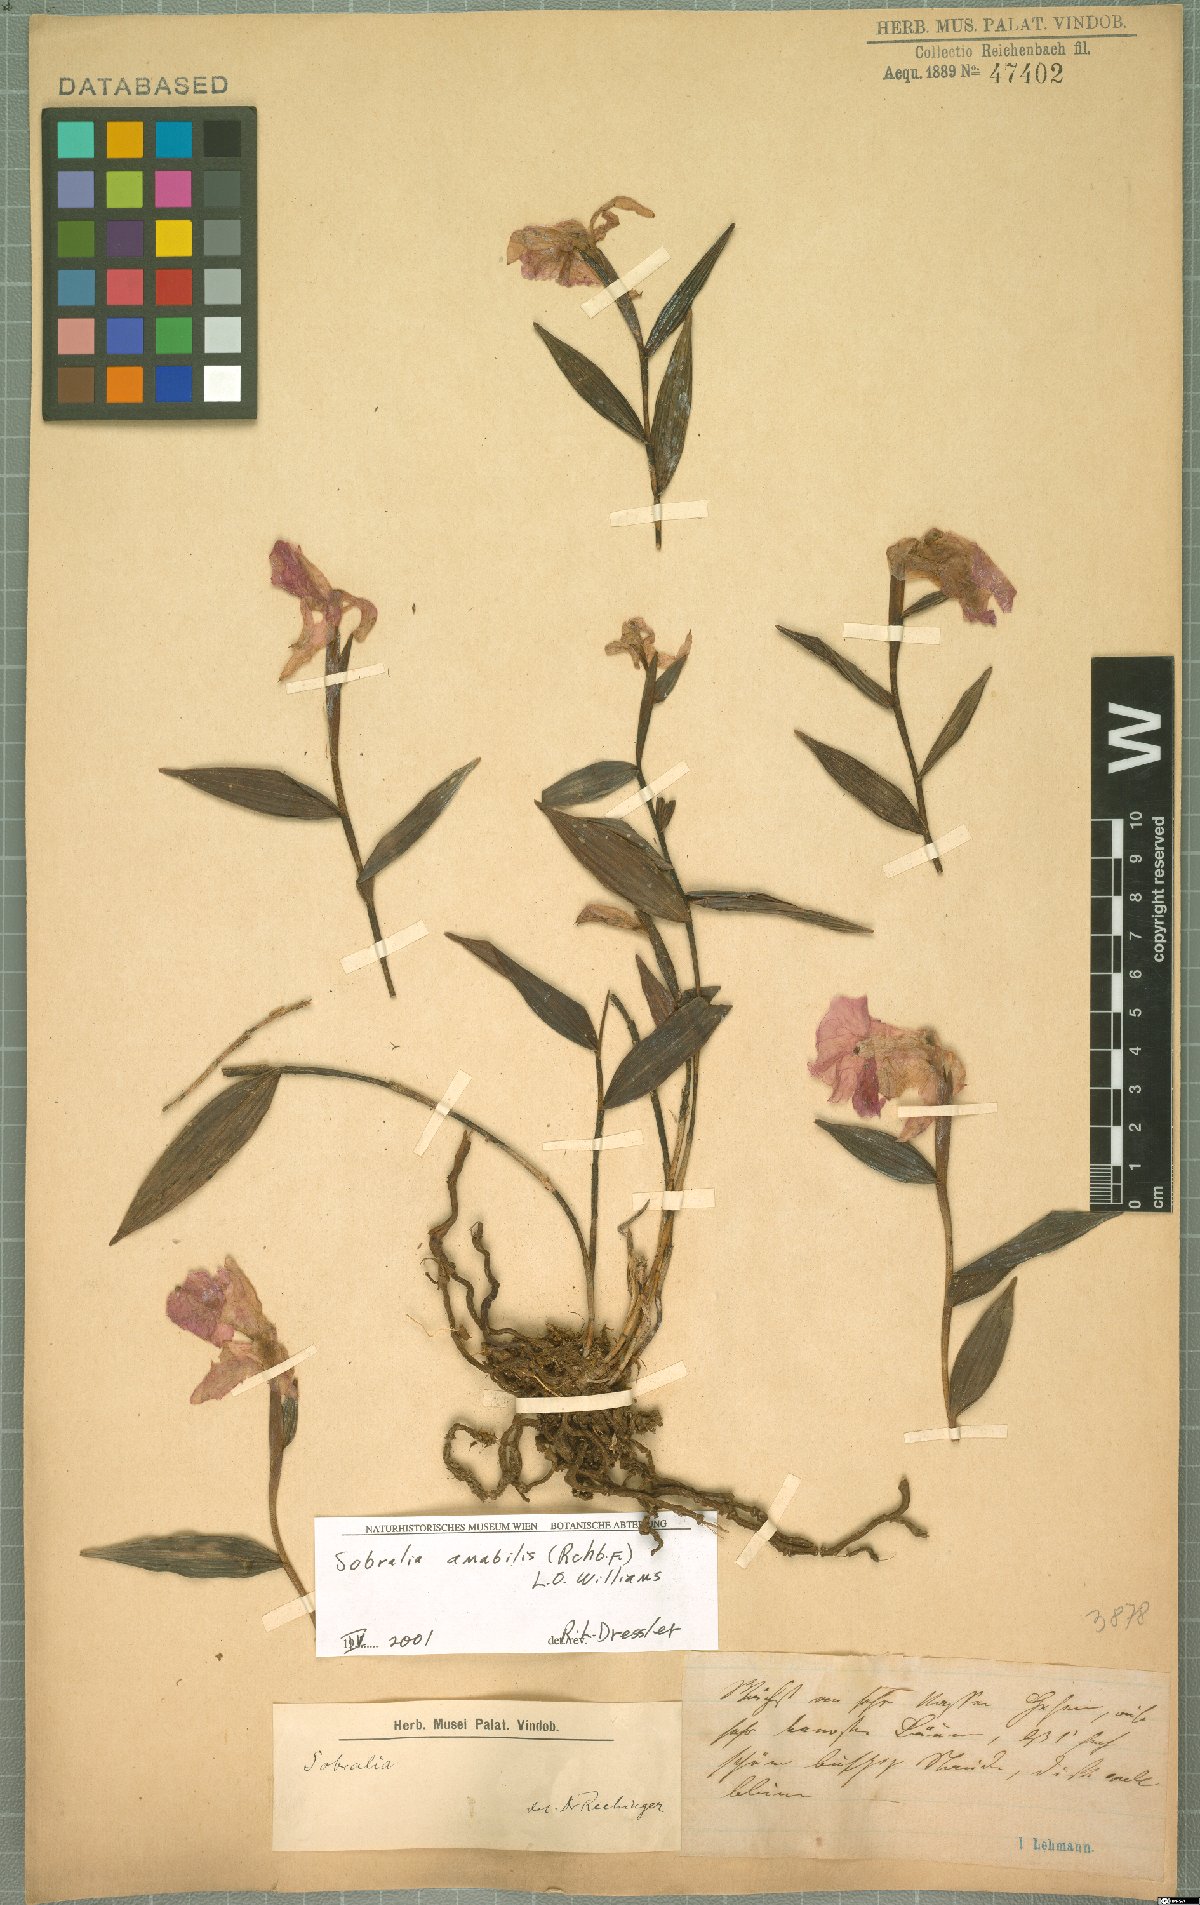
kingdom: Plantae
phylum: Tracheophyta
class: Liliopsida
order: Asparagales
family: Orchidaceae
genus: Sobralia
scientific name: Sobralia amabilis
